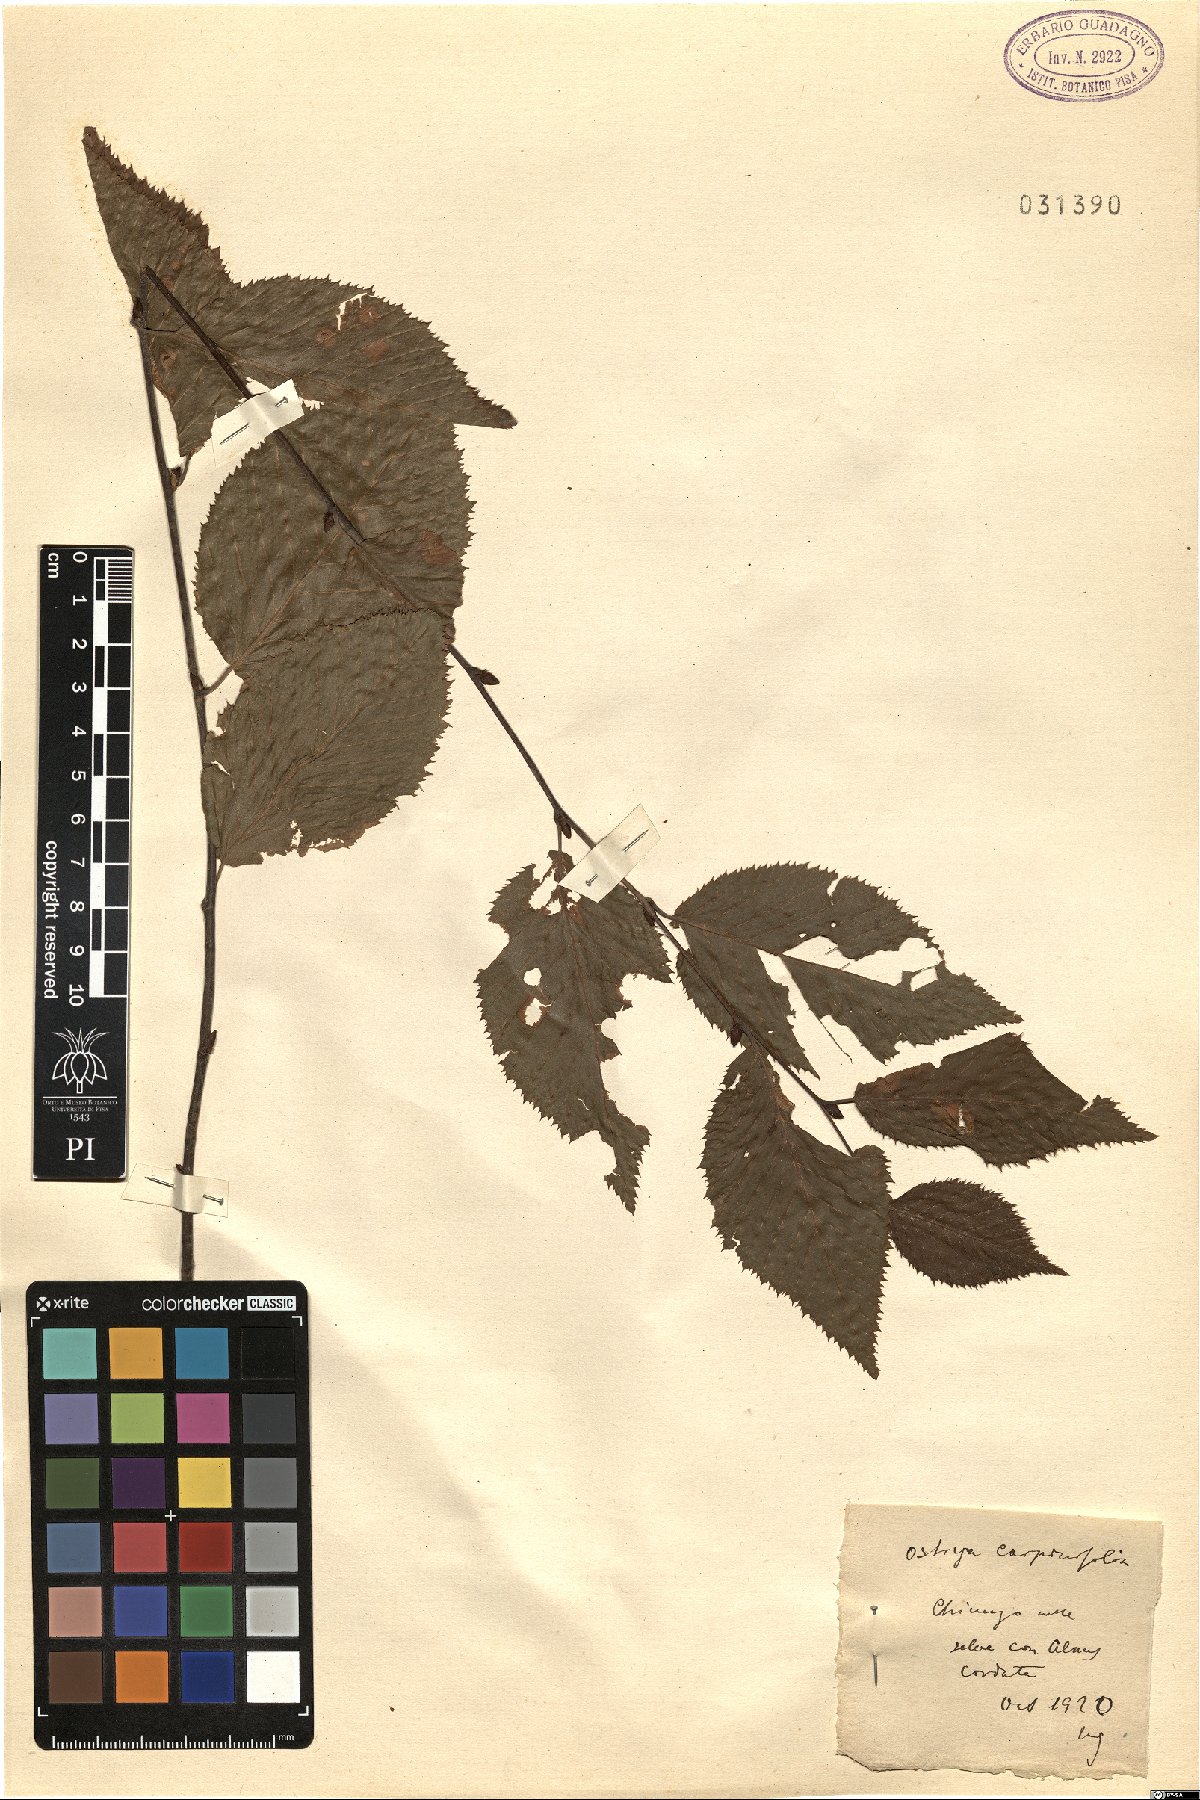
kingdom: Plantae
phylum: Tracheophyta
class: Magnoliopsida
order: Fagales
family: Betulaceae
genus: Ostrya
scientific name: Ostrya carpinifolia
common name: European hop-hornbeam
